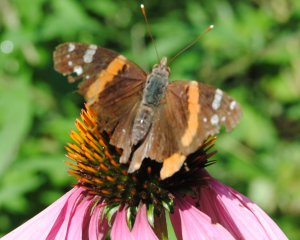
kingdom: Animalia
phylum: Arthropoda
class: Insecta
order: Lepidoptera
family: Nymphalidae
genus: Vanessa
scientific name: Vanessa atalanta
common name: Red Admiral
